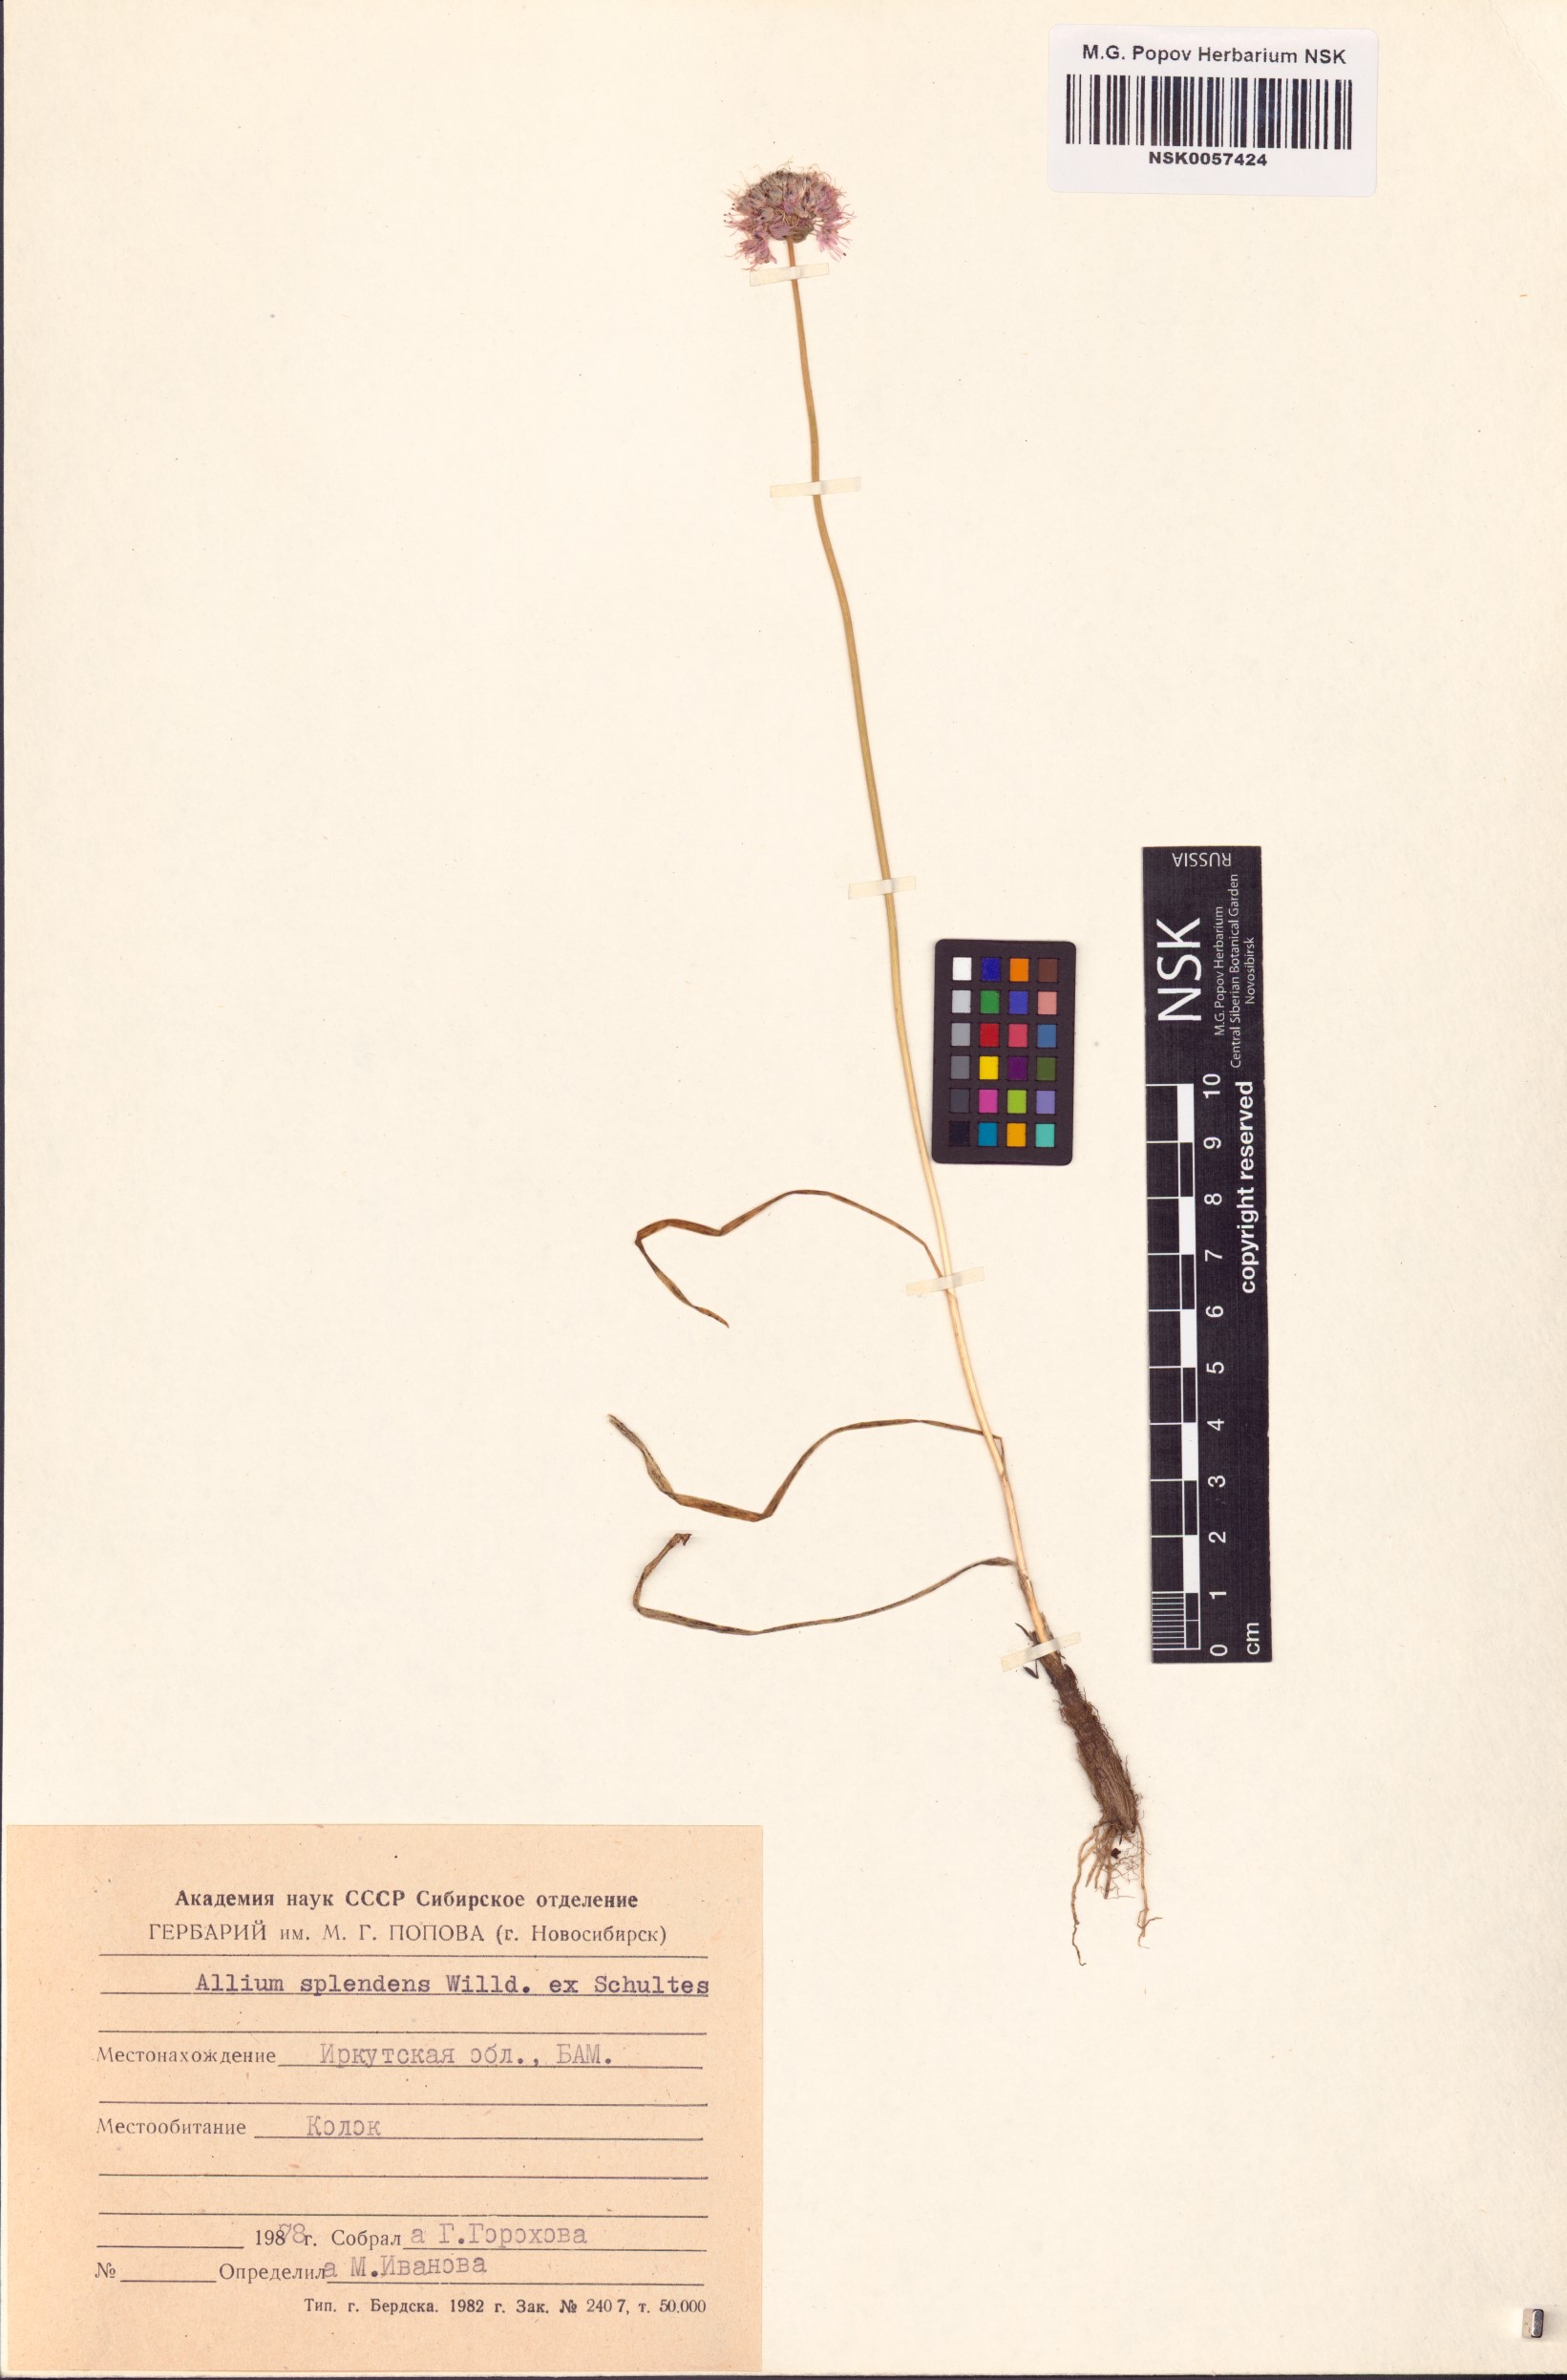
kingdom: Plantae
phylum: Tracheophyta
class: Liliopsida
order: Asparagales
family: Amaryllidaceae
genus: Allium
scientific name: Allium splendens
